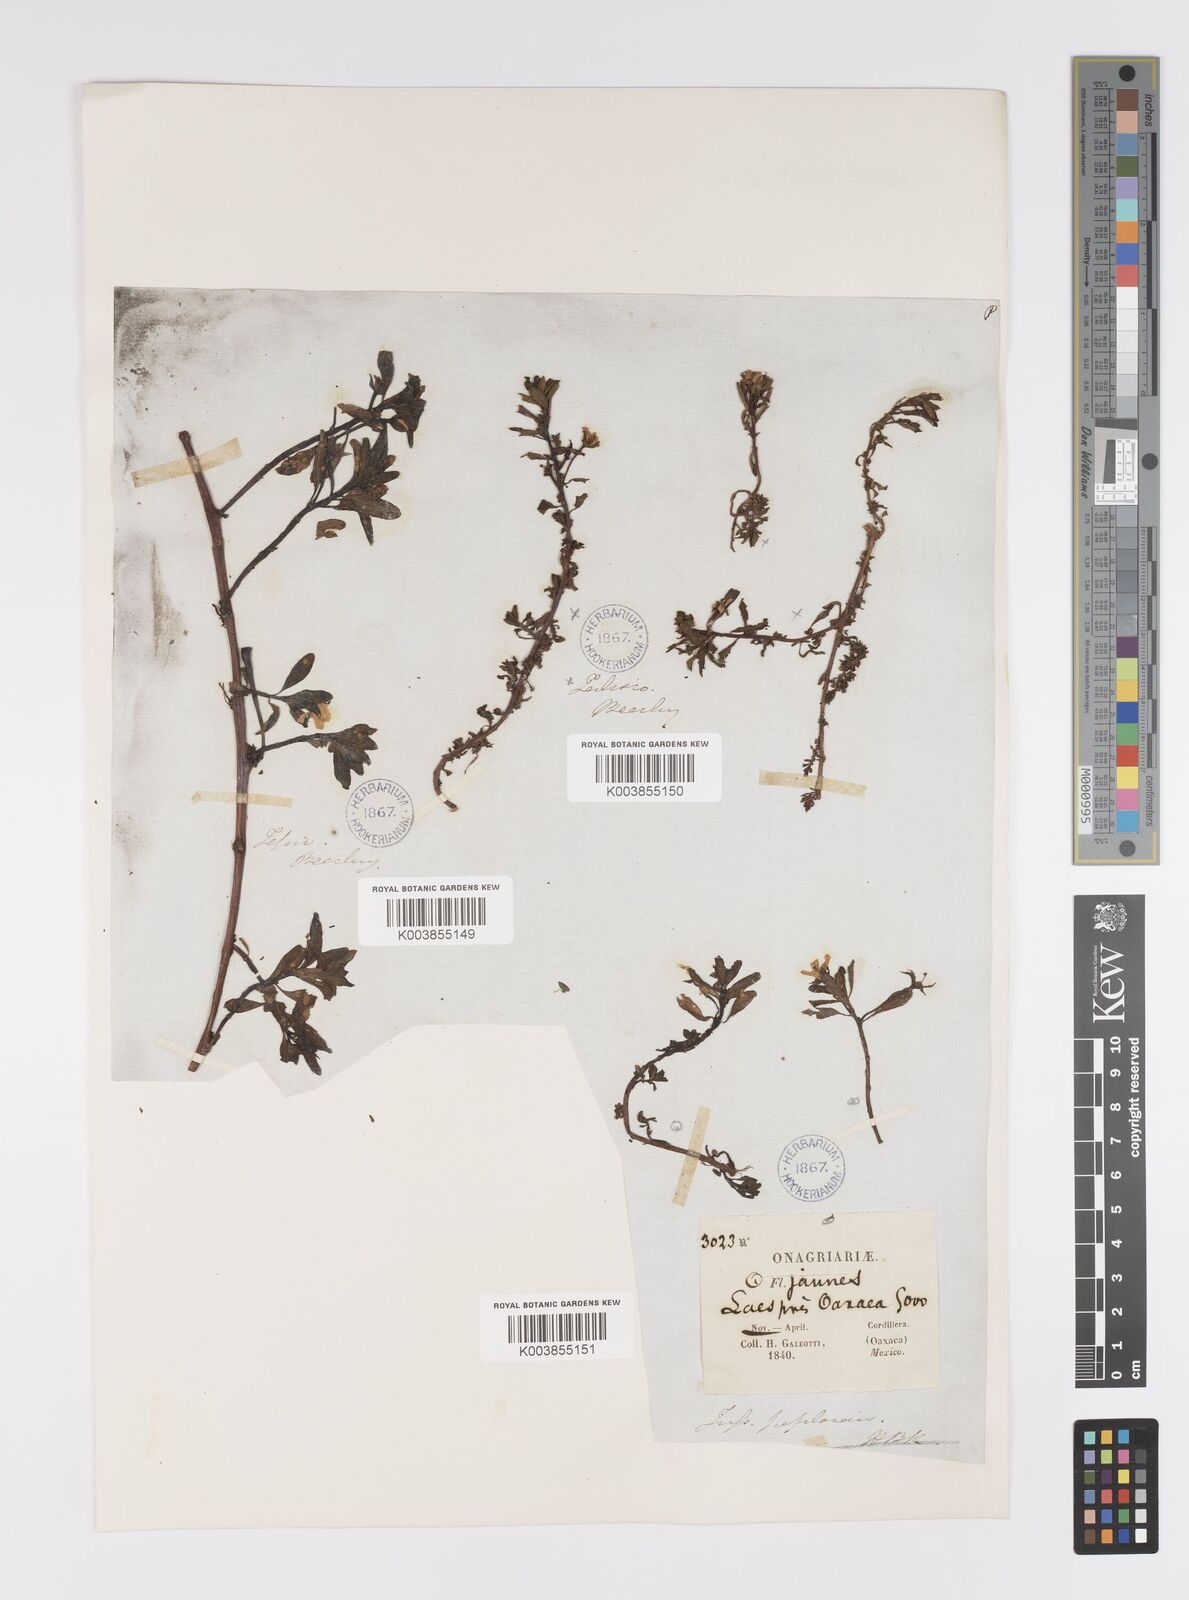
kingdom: Plantae
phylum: Tracheophyta
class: Magnoliopsida
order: Myrtales
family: Onagraceae
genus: Ludwigia
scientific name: Ludwigia adscendens
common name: Creeping water primrose
